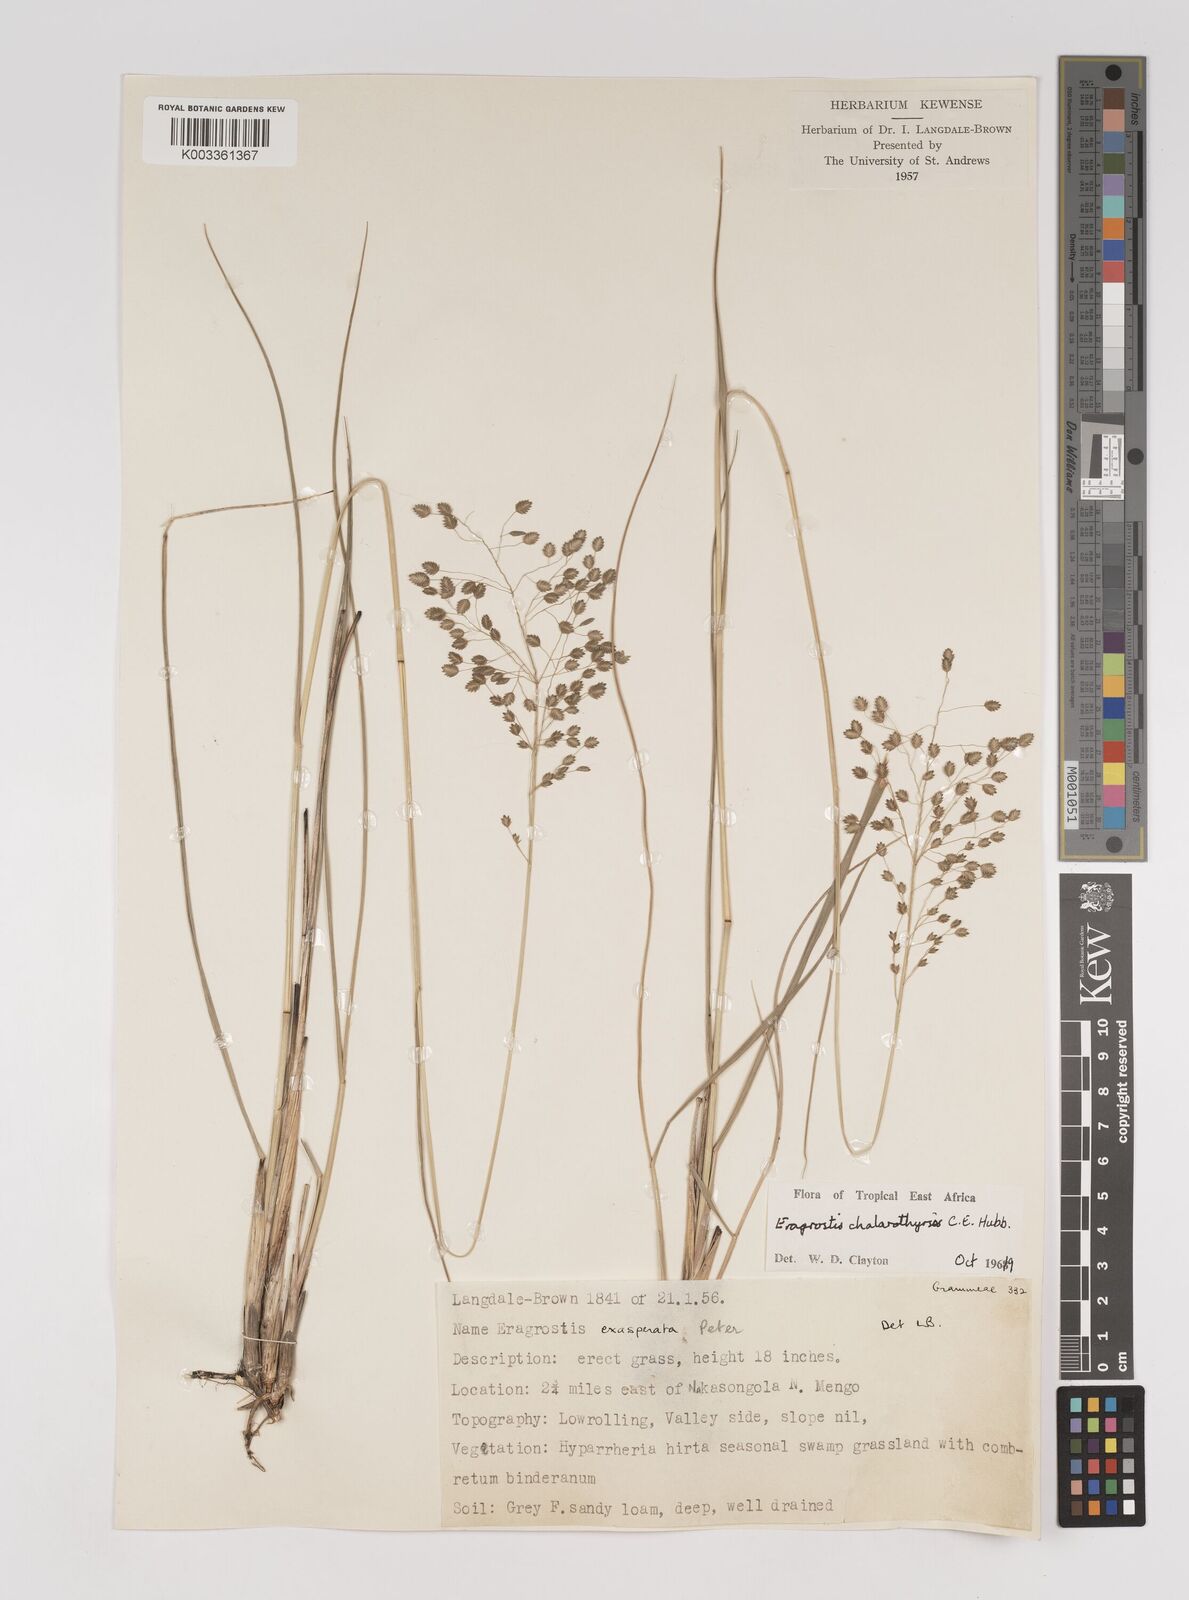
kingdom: Plantae
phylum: Tracheophyta
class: Liliopsida
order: Poales
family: Poaceae
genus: Eragrostis
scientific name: Eragrostis chalarothyrsos
